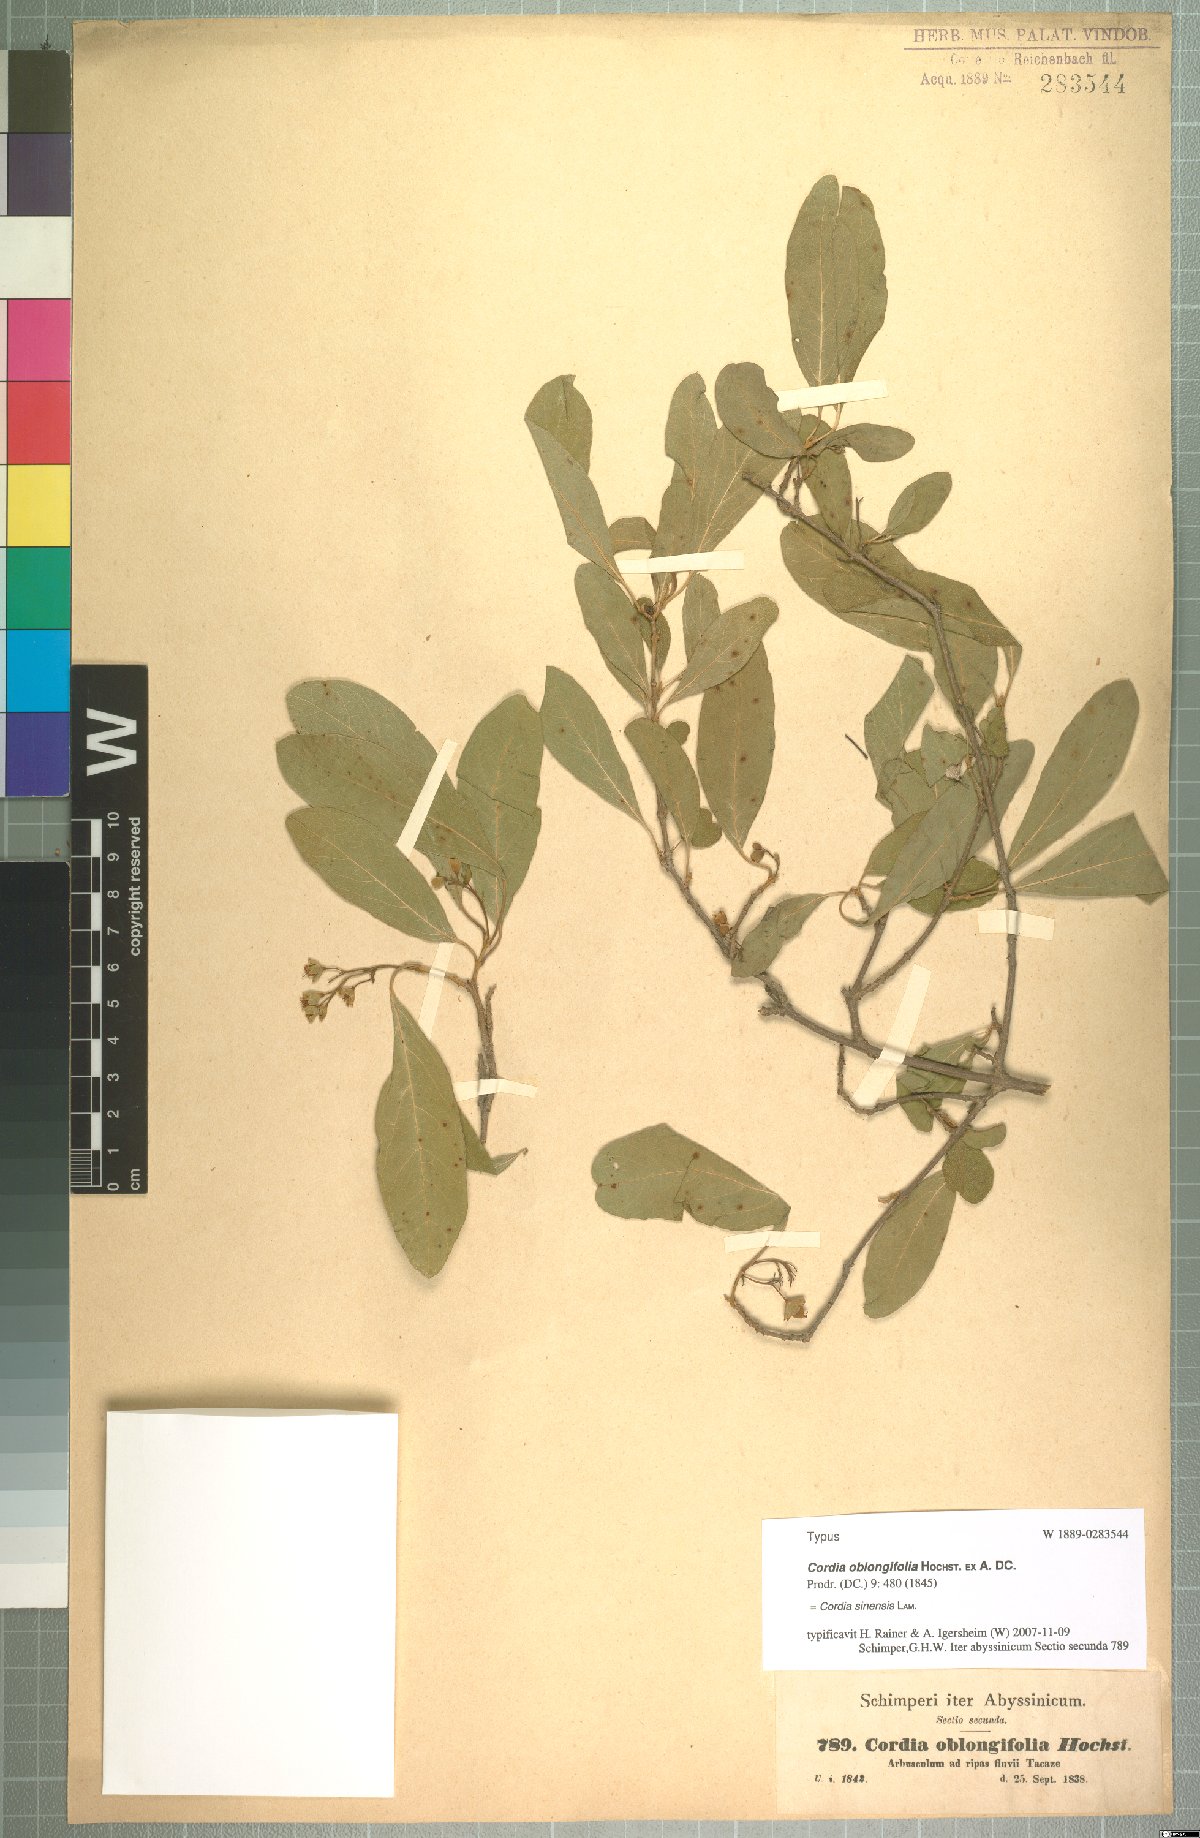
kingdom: Plantae
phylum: Tracheophyta
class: Magnoliopsida
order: Boraginales
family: Cordiaceae
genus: Cordia
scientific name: Cordia sinensis
